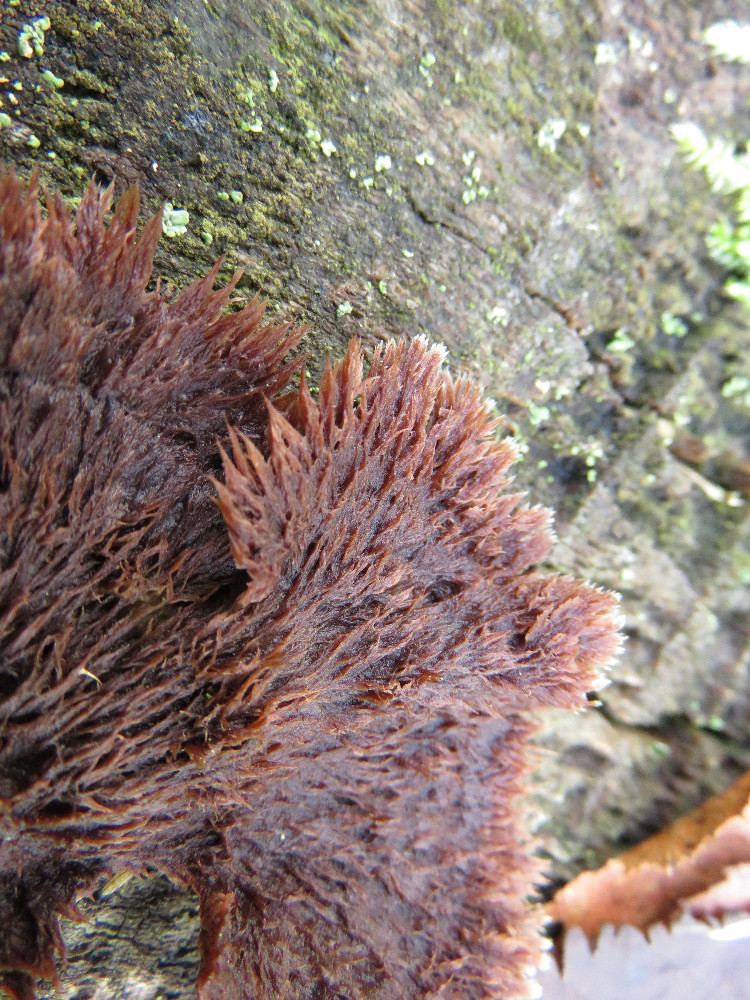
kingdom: Fungi
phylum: Basidiomycota
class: Agaricomycetes
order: Thelephorales
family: Thelephoraceae
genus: Thelephora
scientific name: Thelephora terrestris
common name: fliget frynsesvamp
